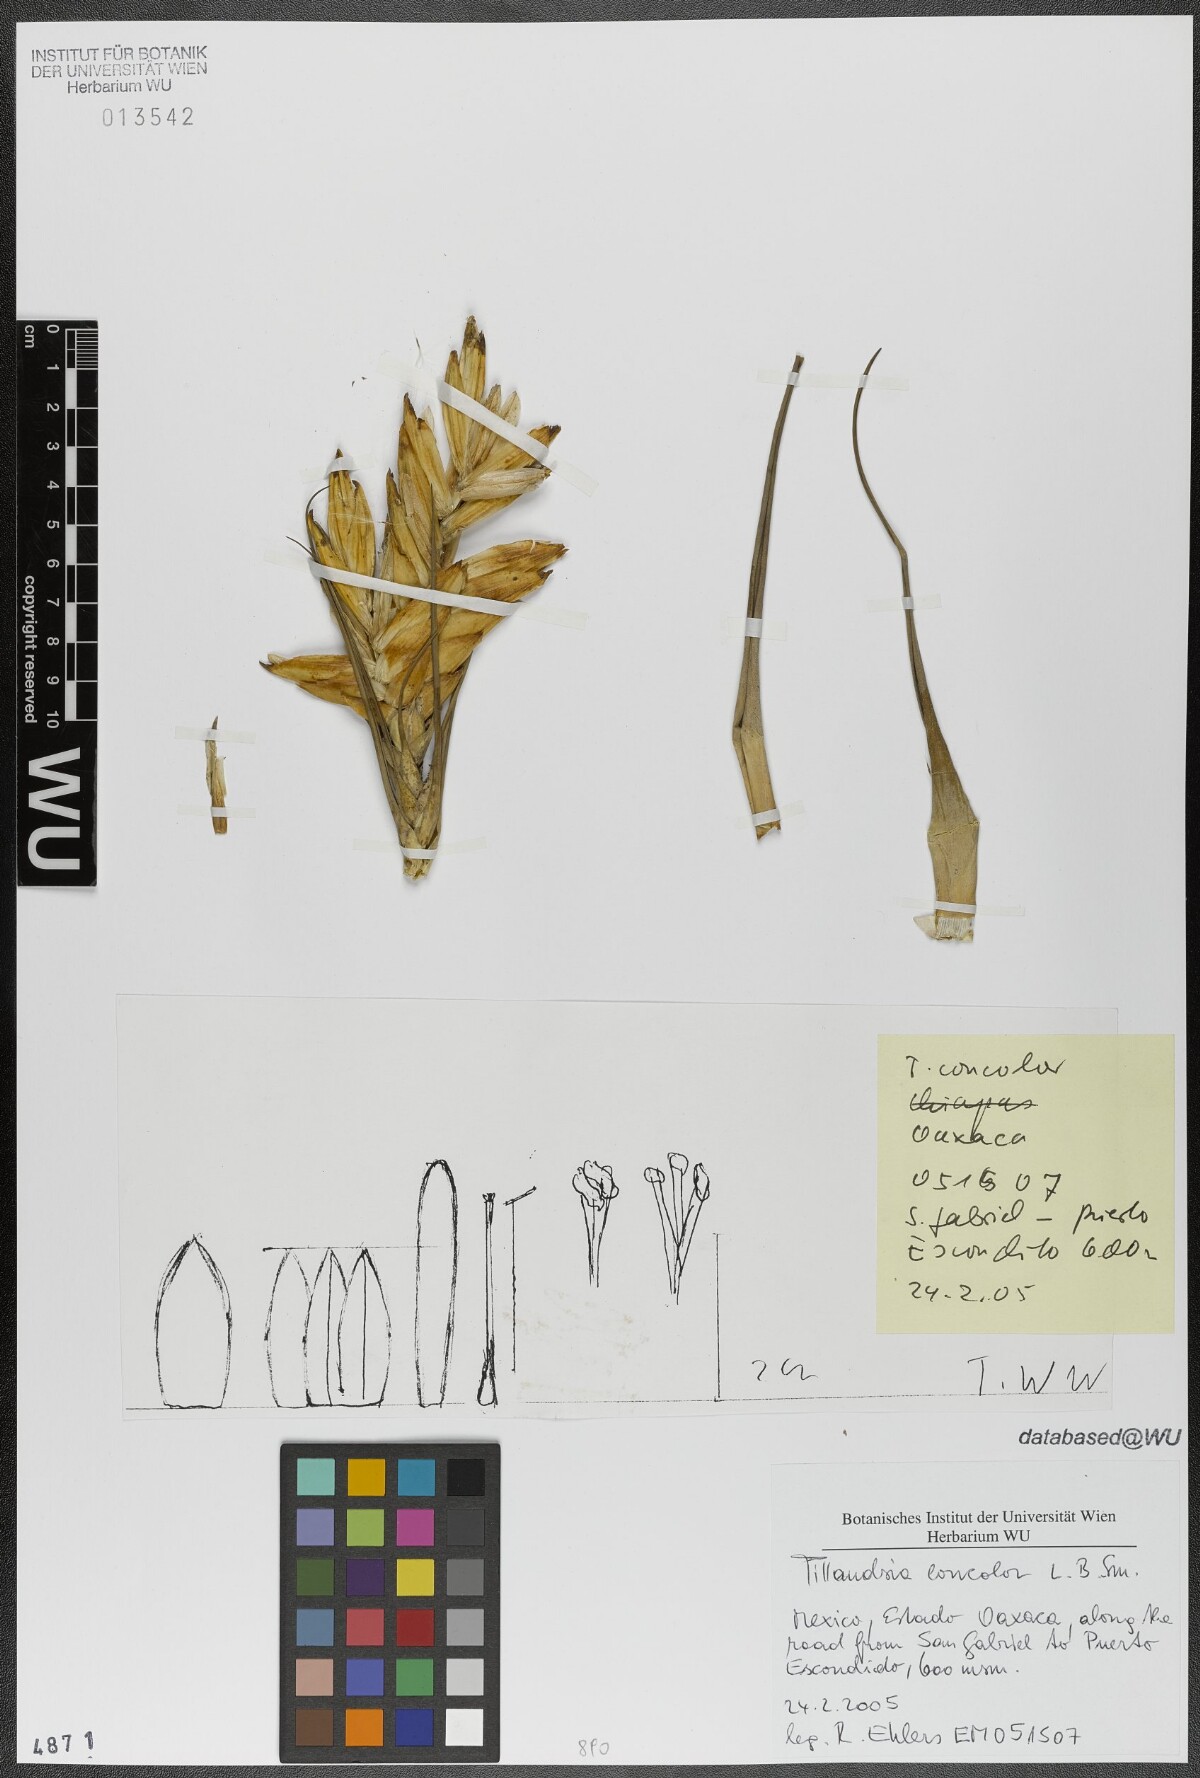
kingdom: Plantae
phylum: Tracheophyta
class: Liliopsida
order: Poales
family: Bromeliaceae
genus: Tillandsia
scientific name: Tillandsia concolor
